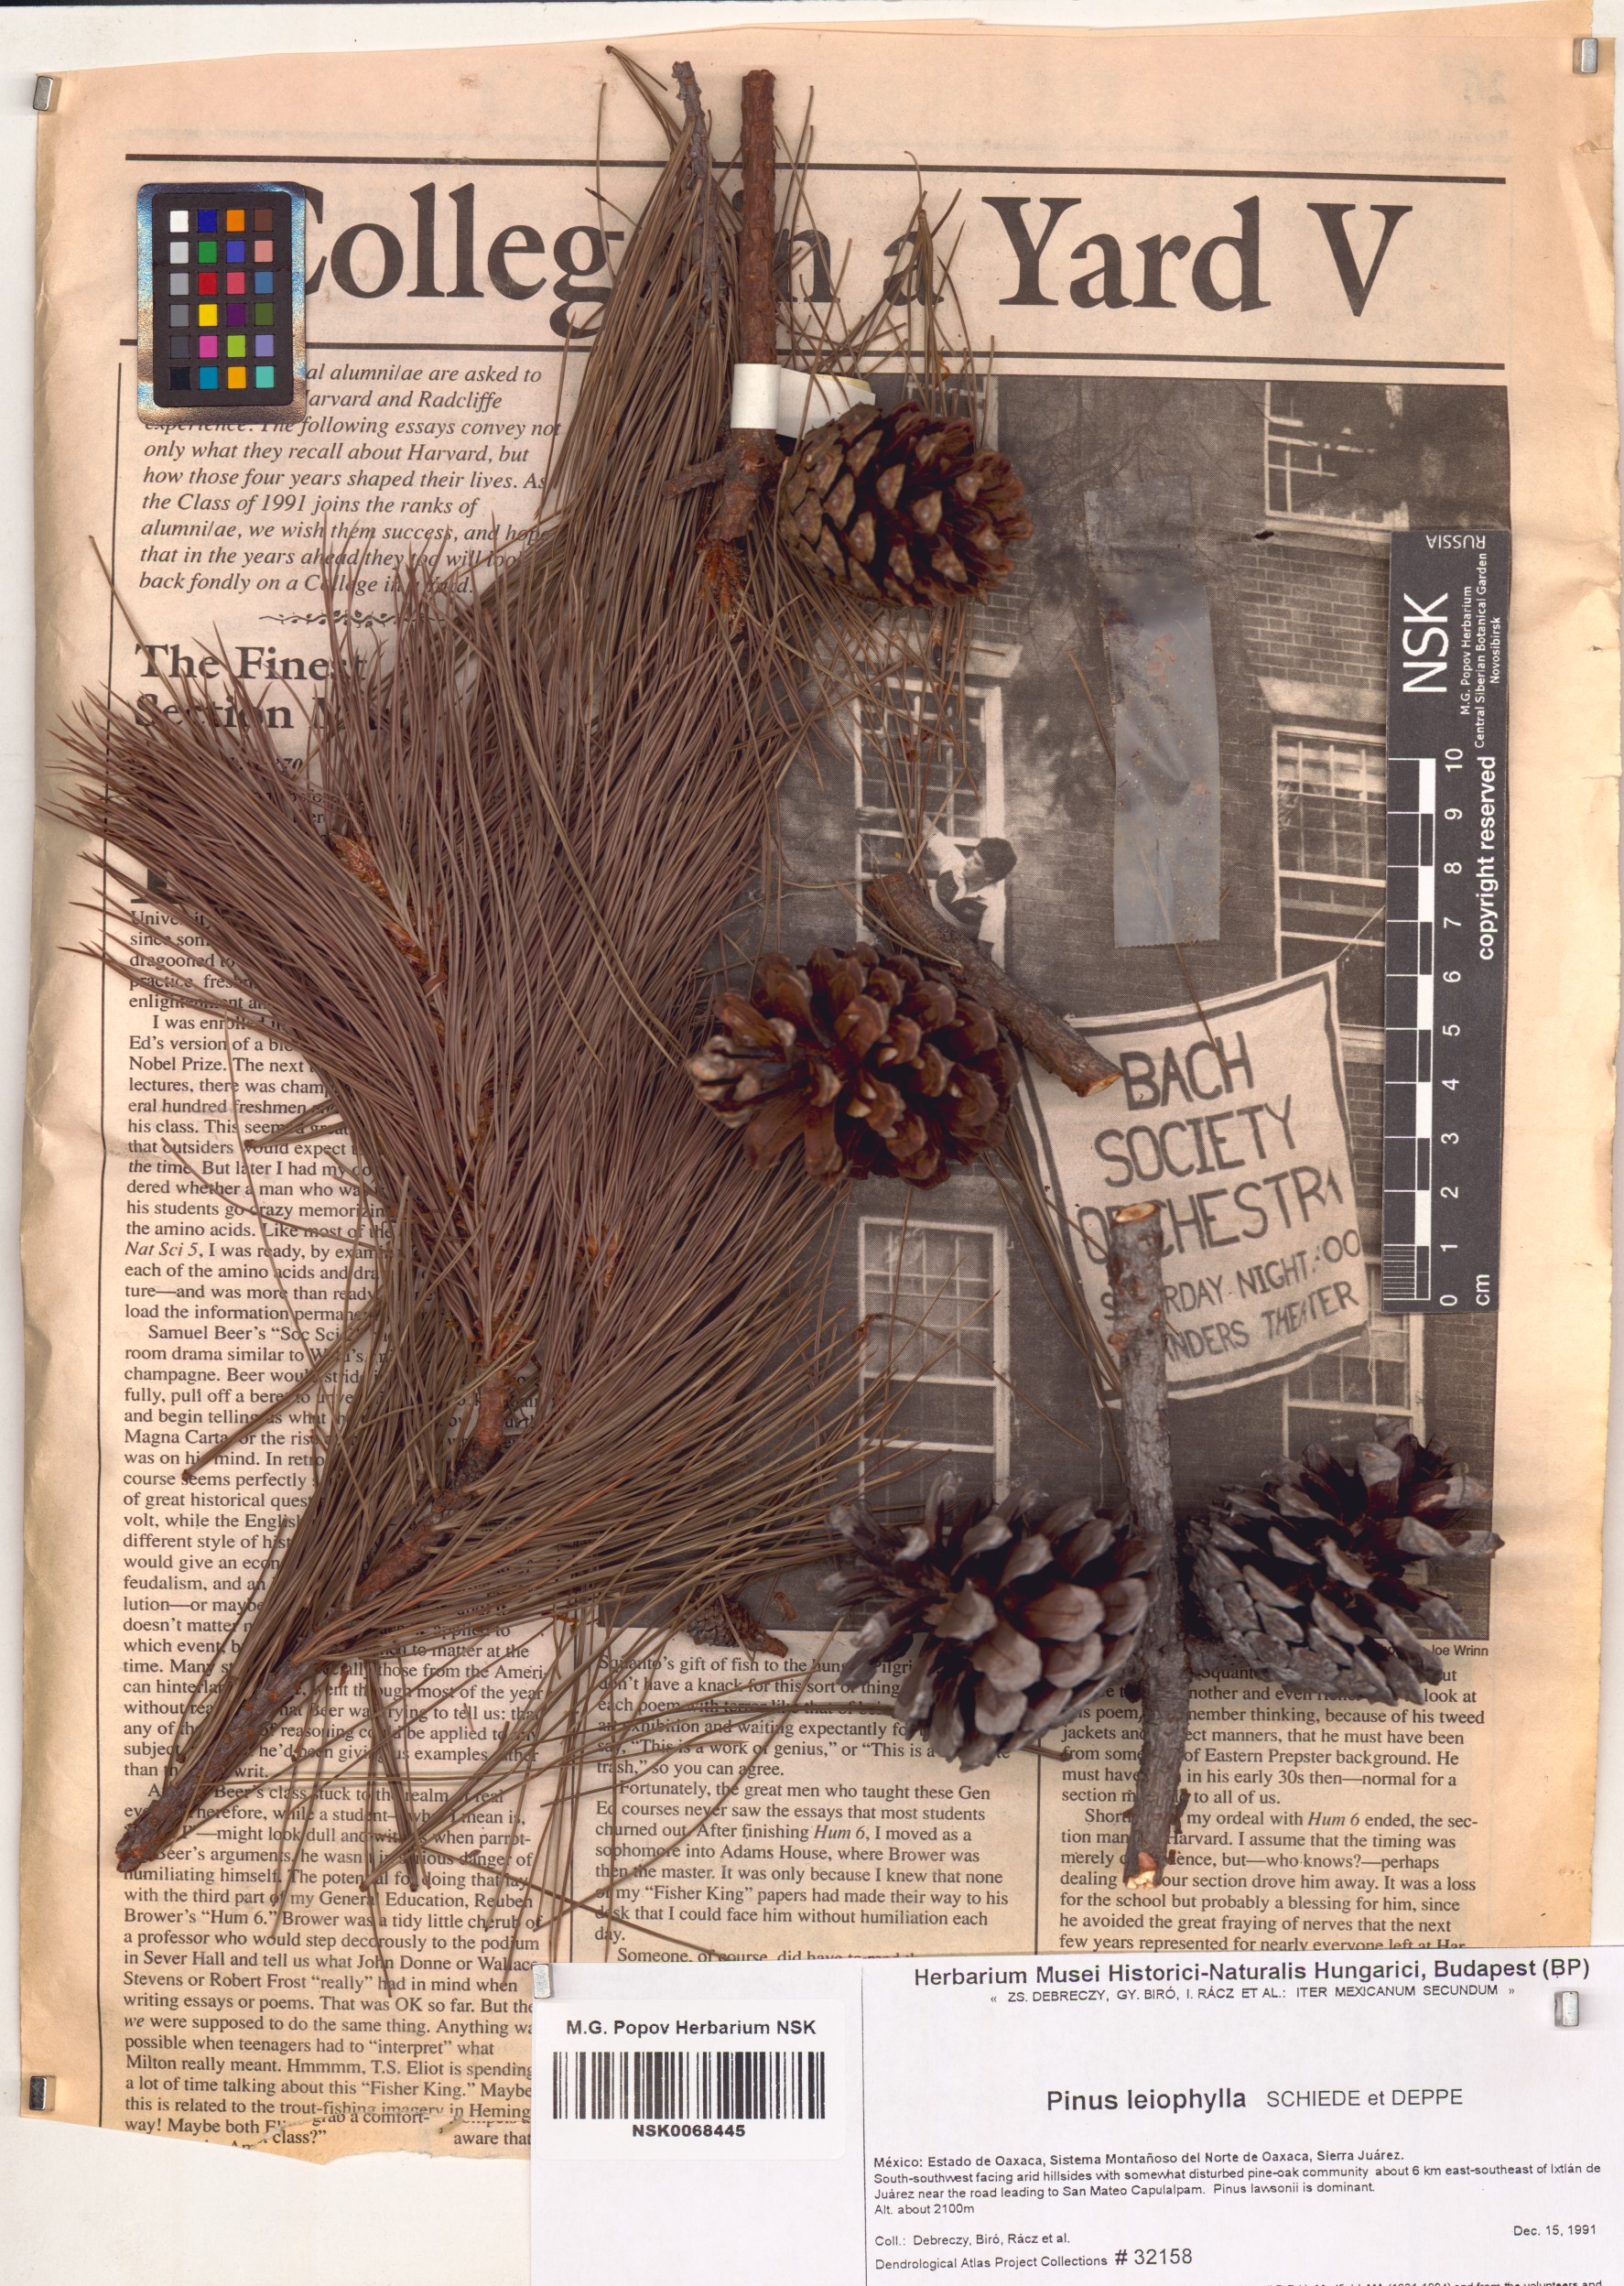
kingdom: Plantae
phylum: Tracheophyta
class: Pinopsida
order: Pinales
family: Pinaceae
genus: Pinus
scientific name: Pinus leiophylla
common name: Chihuahua pine
